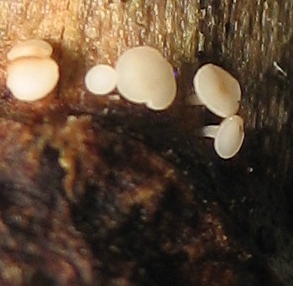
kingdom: Fungi
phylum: Ascomycota
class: Leotiomycetes
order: Helotiales
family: Helotiaceae
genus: Bryoscyphus
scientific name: Bryoscyphus
